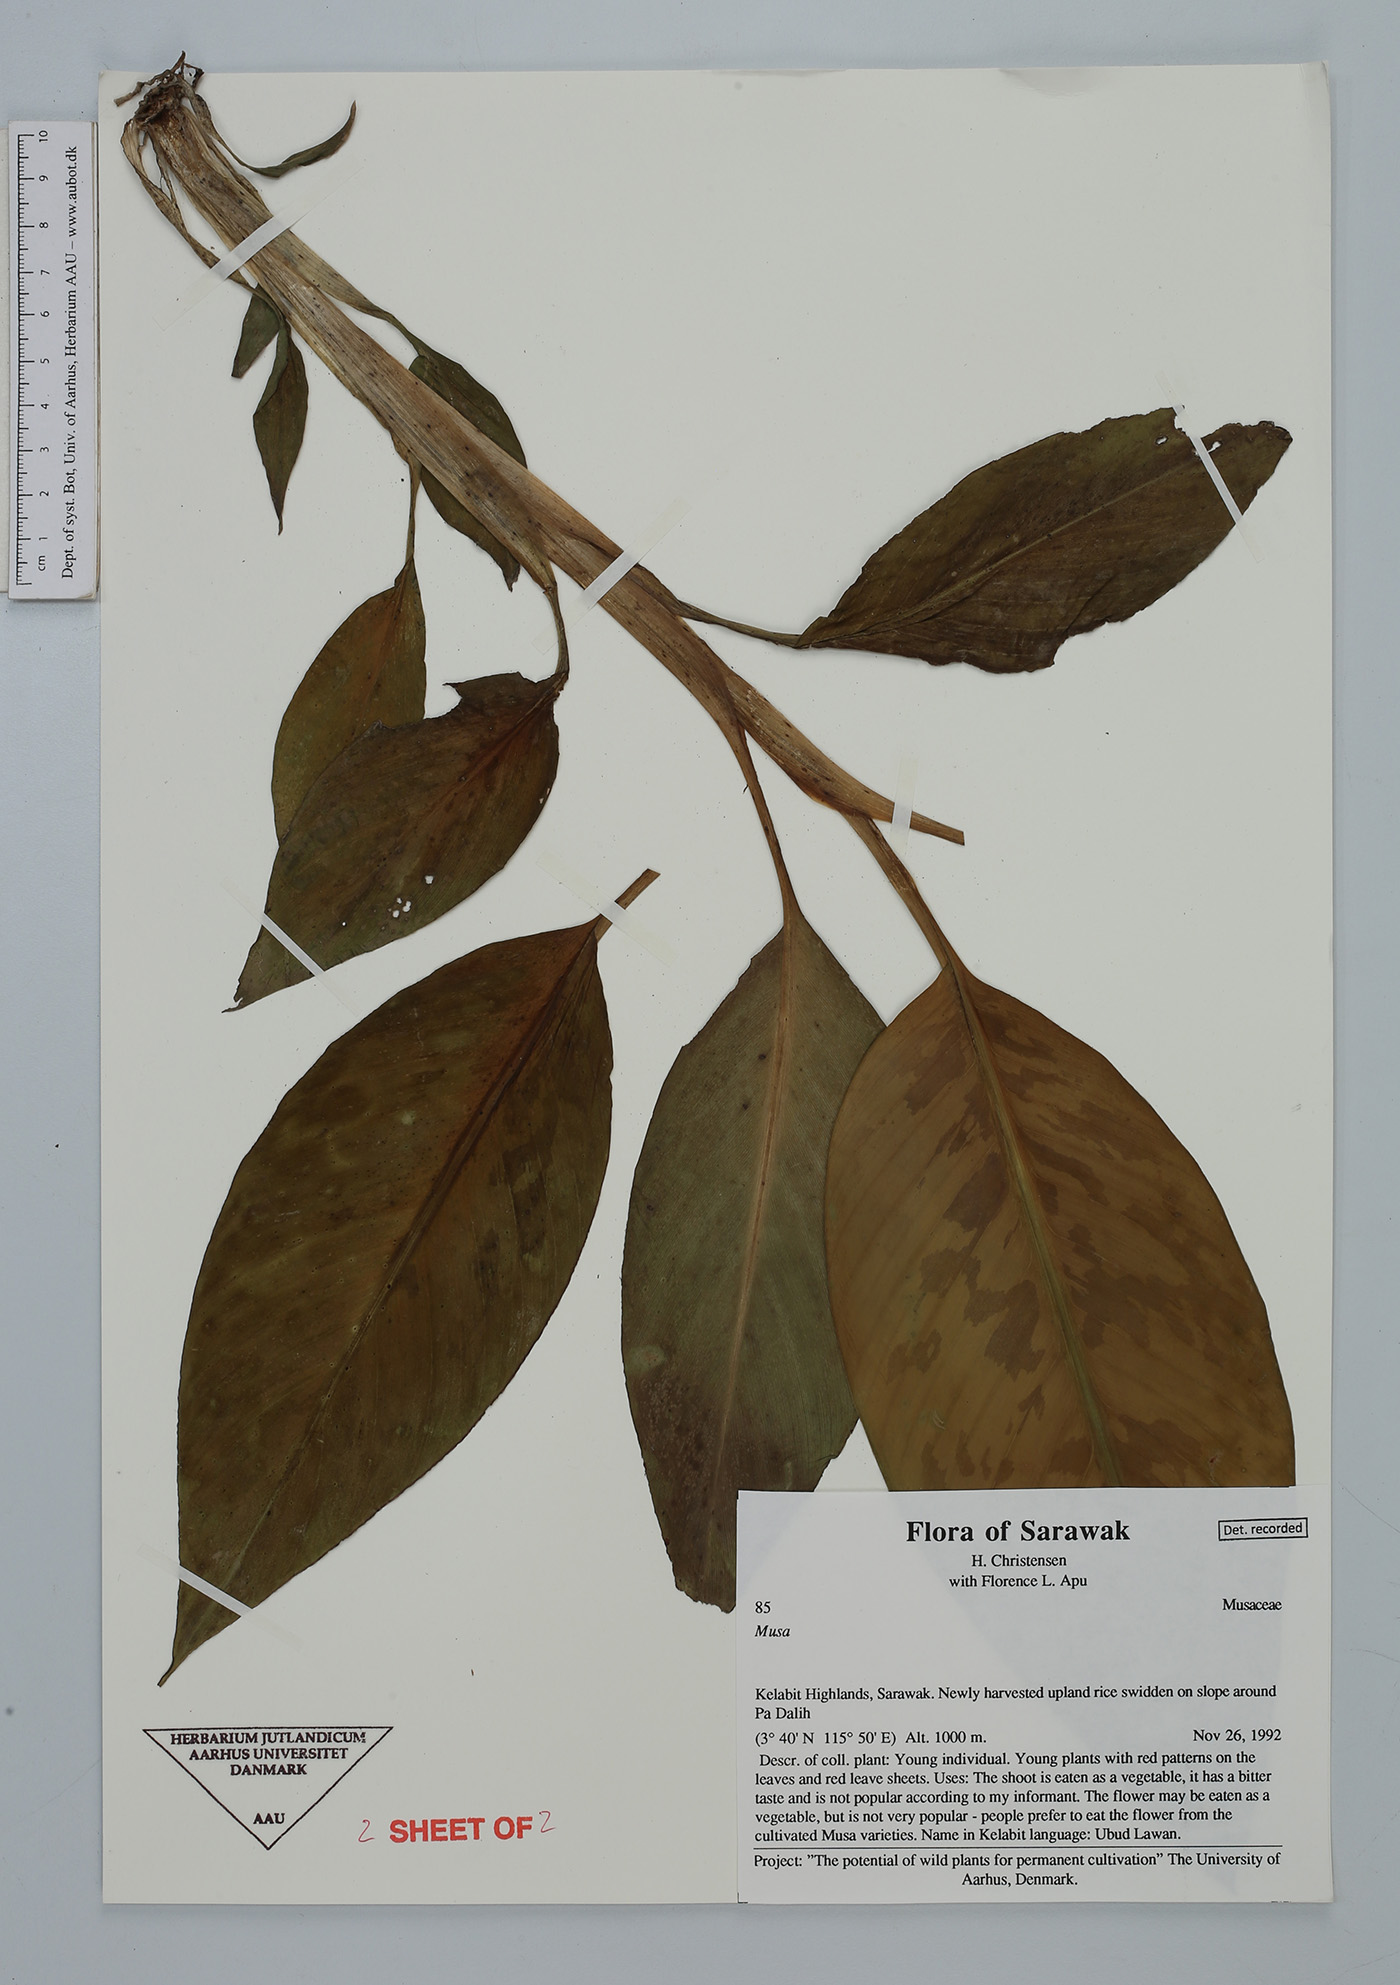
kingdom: Plantae
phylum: Tracheophyta
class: Liliopsida
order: Zingiberales
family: Musaceae
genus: Musa
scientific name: Musa
